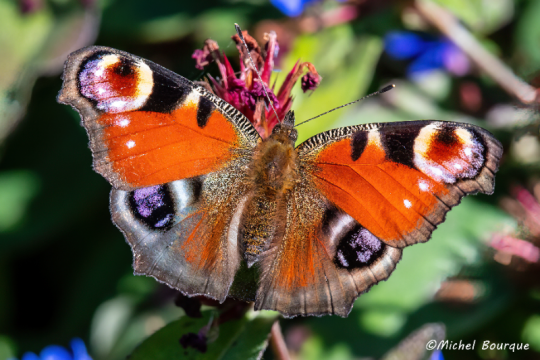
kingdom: Animalia
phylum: Arthropoda
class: Insecta
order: Lepidoptera
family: Nymphalidae
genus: Aglais
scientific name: Aglais io
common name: European Peacock
